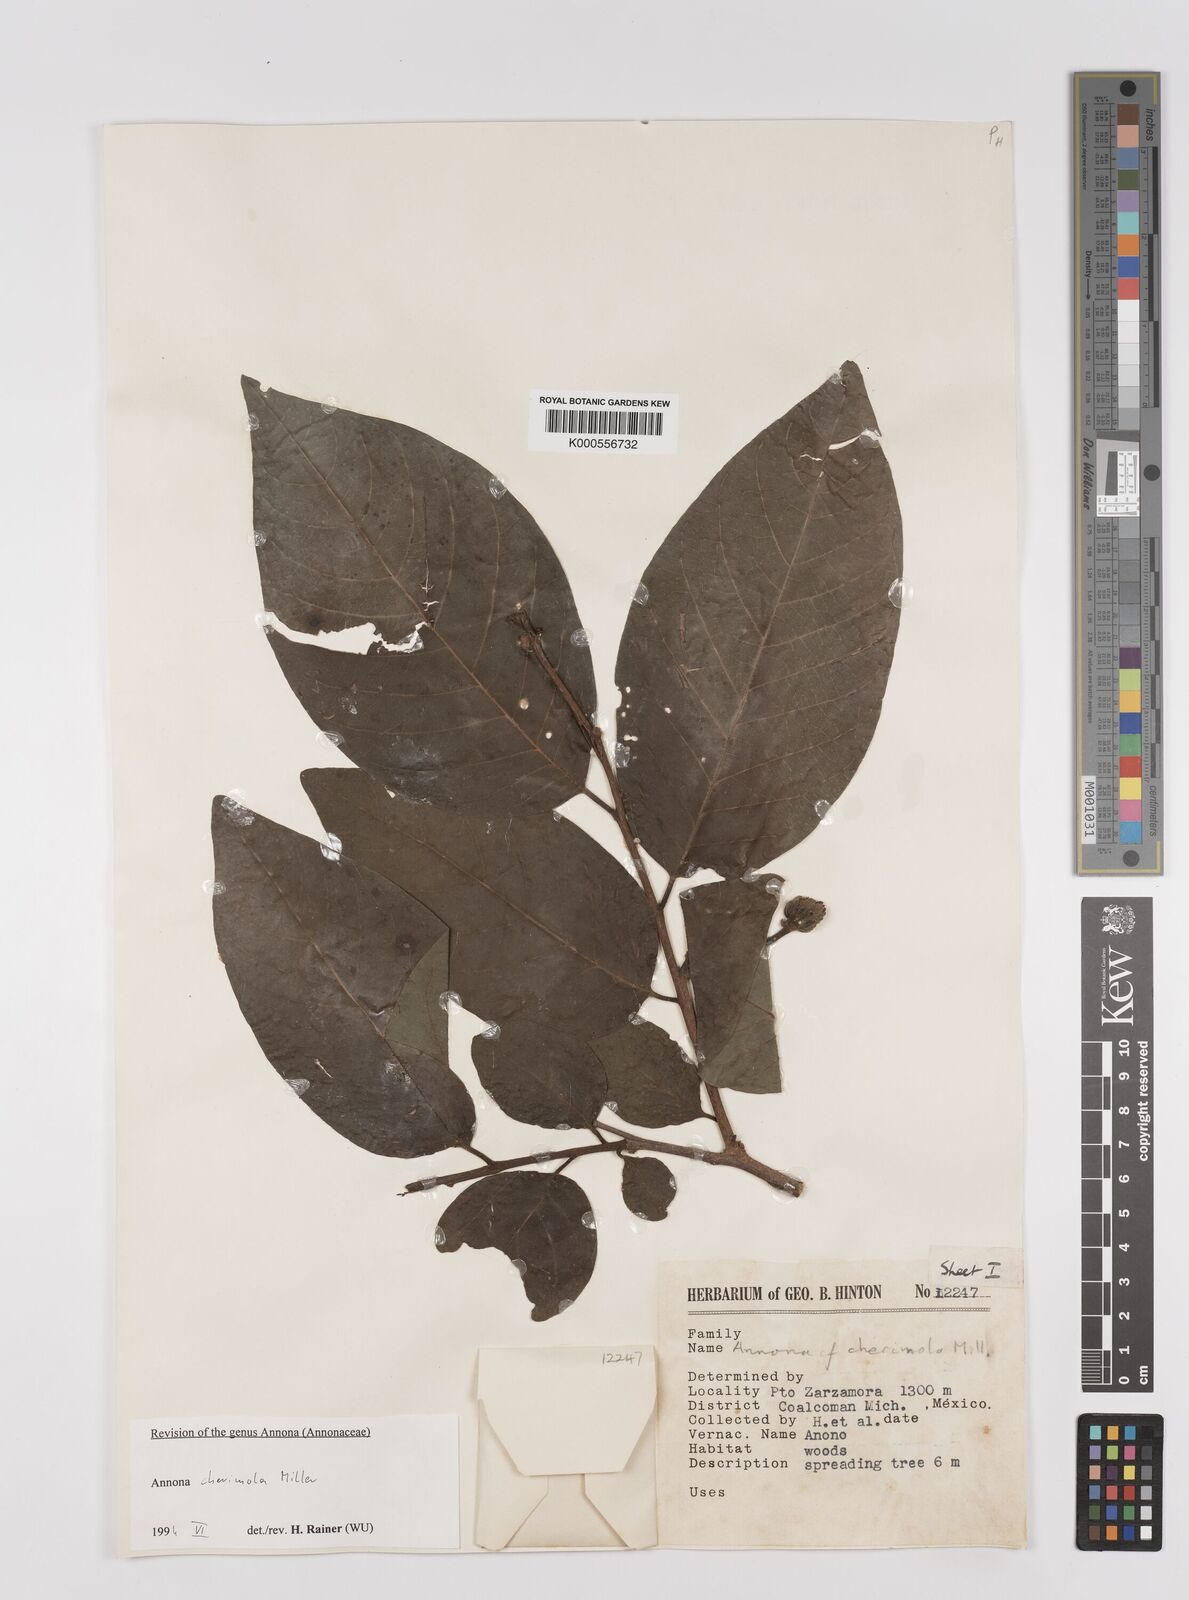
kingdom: Plantae
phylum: Tracheophyta
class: Magnoliopsida
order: Magnoliales
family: Annonaceae
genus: Annona
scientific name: Annona cherimola
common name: Cherimoya
